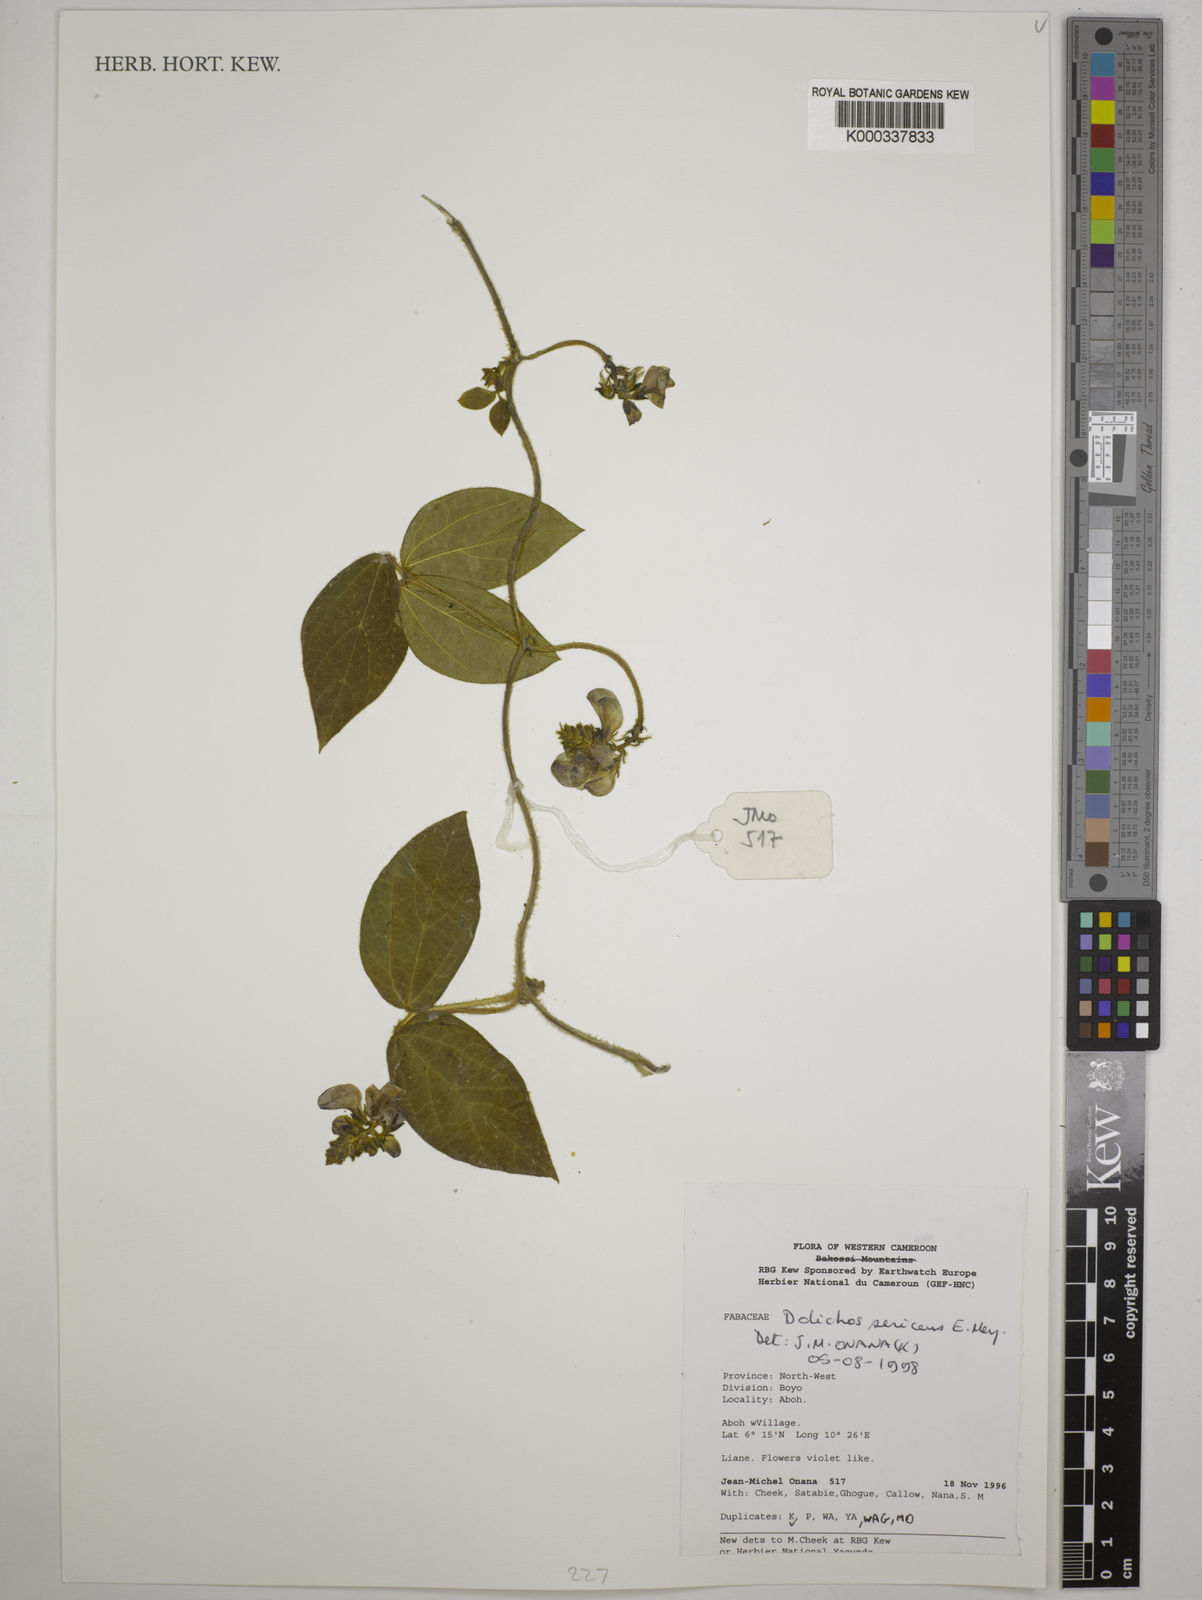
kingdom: Plantae
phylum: Tracheophyta
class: Magnoliopsida
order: Fabales
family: Fabaceae
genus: Dolichos
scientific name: Dolichos sericeus
